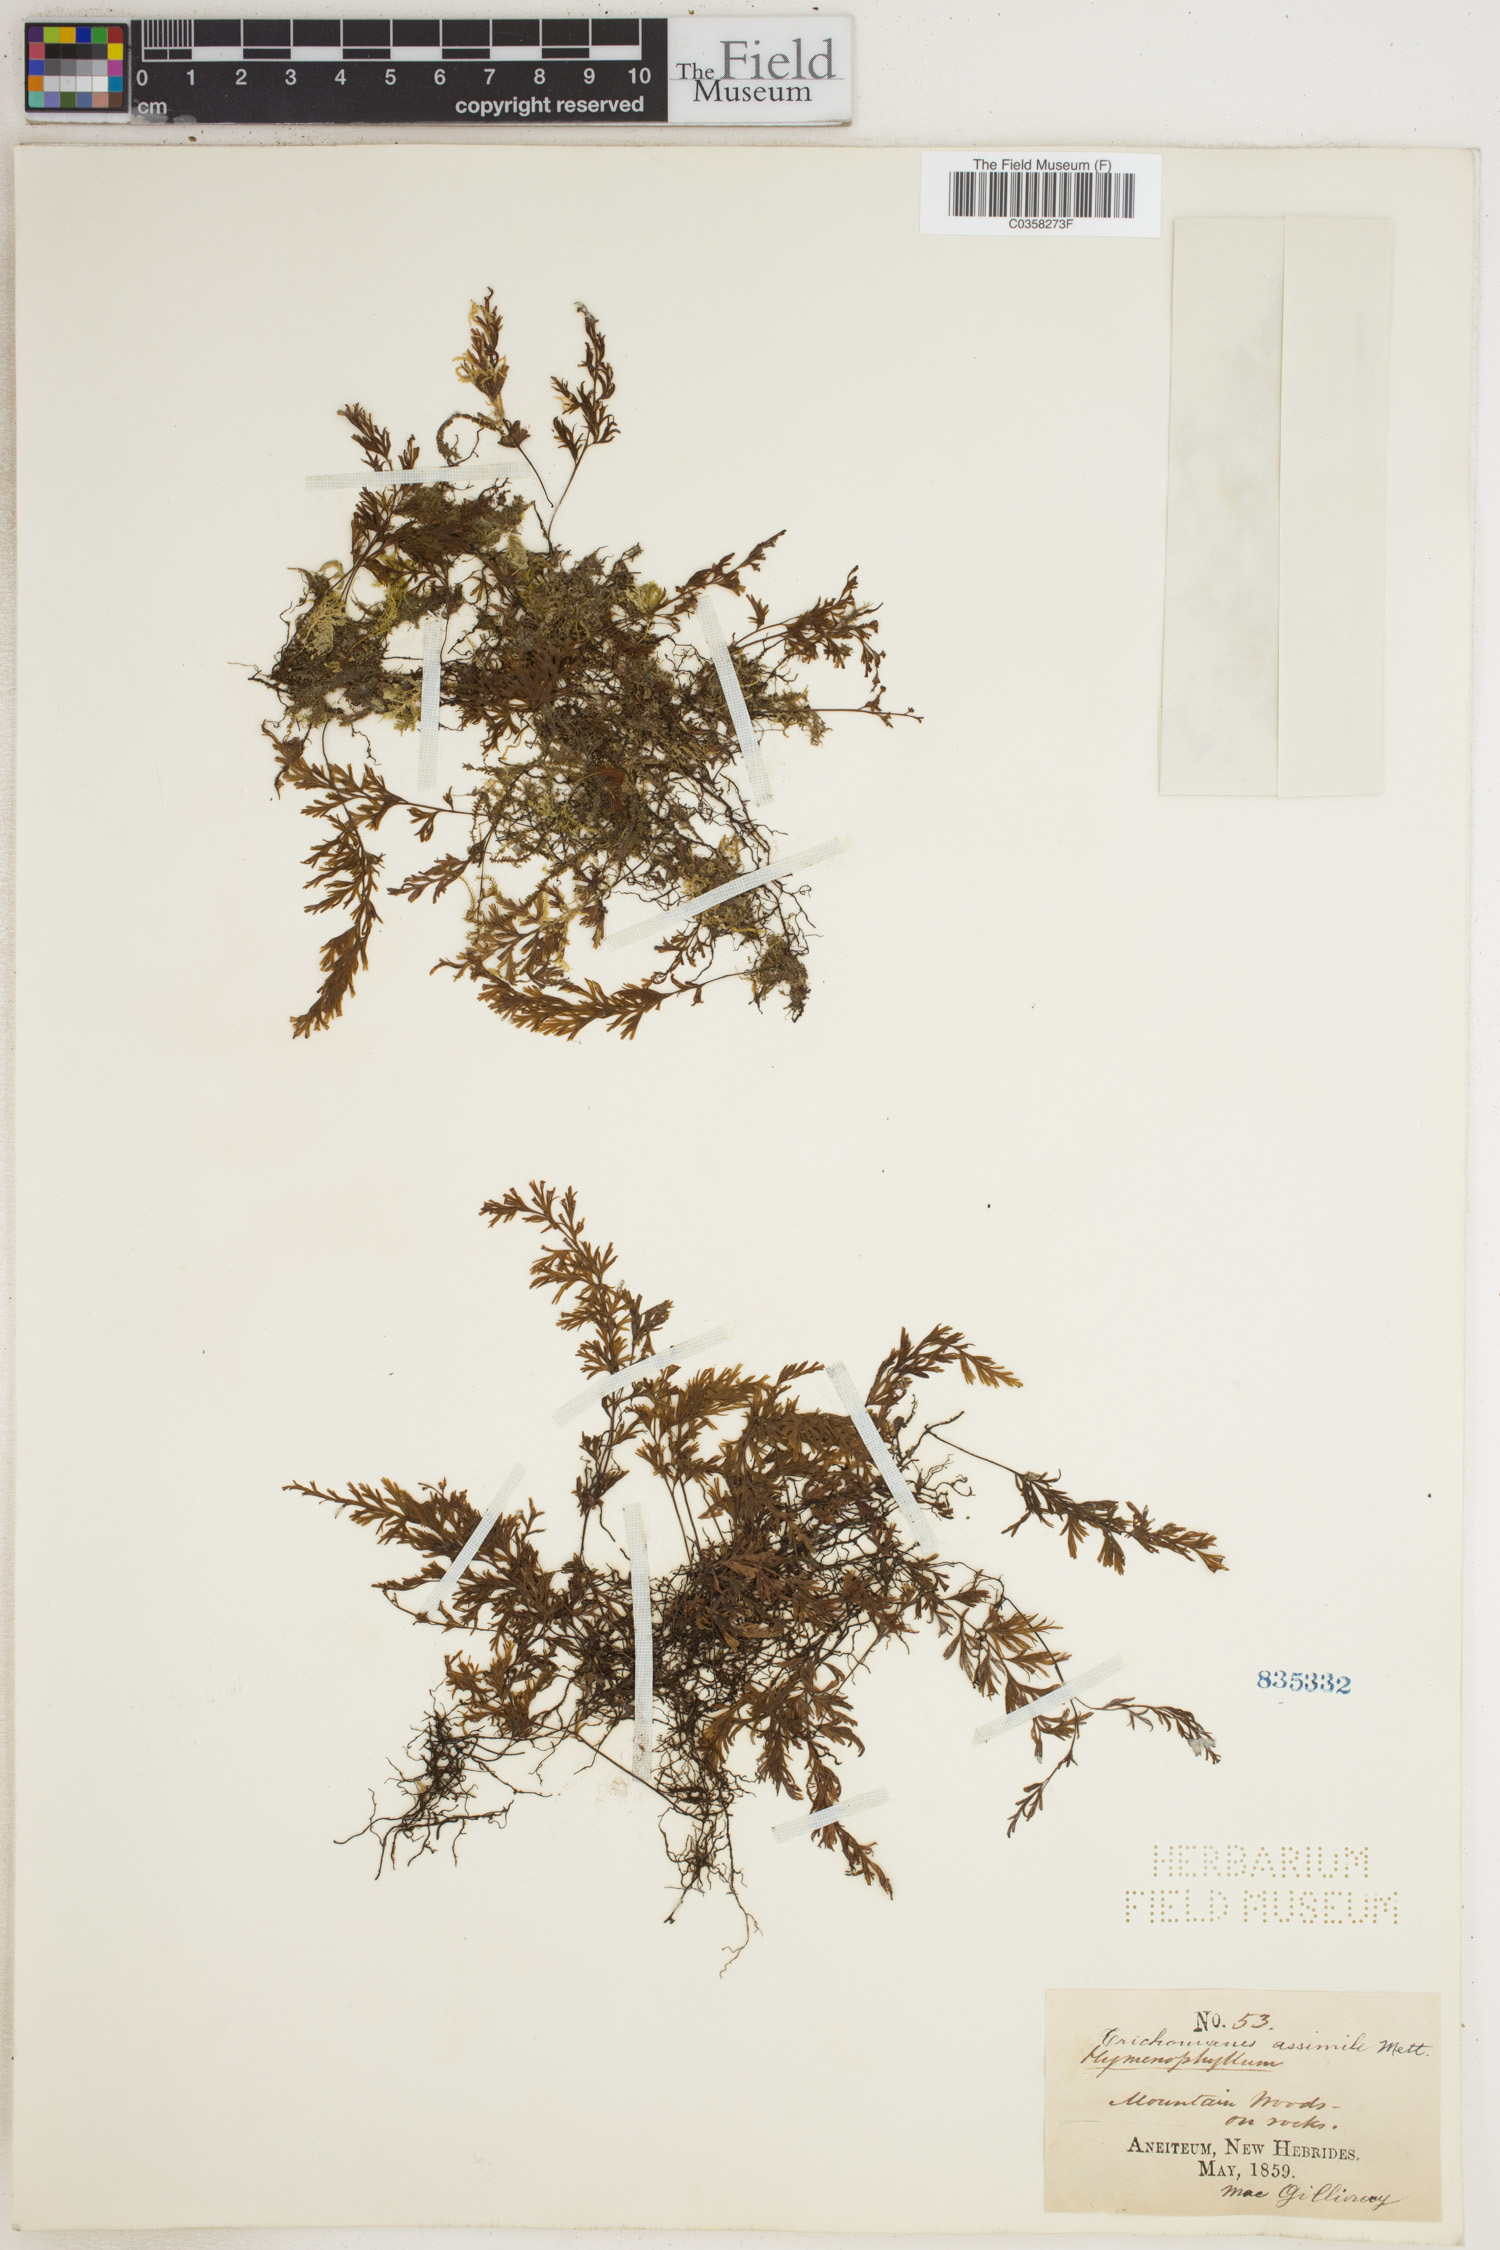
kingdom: Plantae
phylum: Tracheophyta
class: Polypodiopsida
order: Hymenophyllales
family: Hymenophyllaceae
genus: Crepidomanes
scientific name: Crepidomanes assimilis
